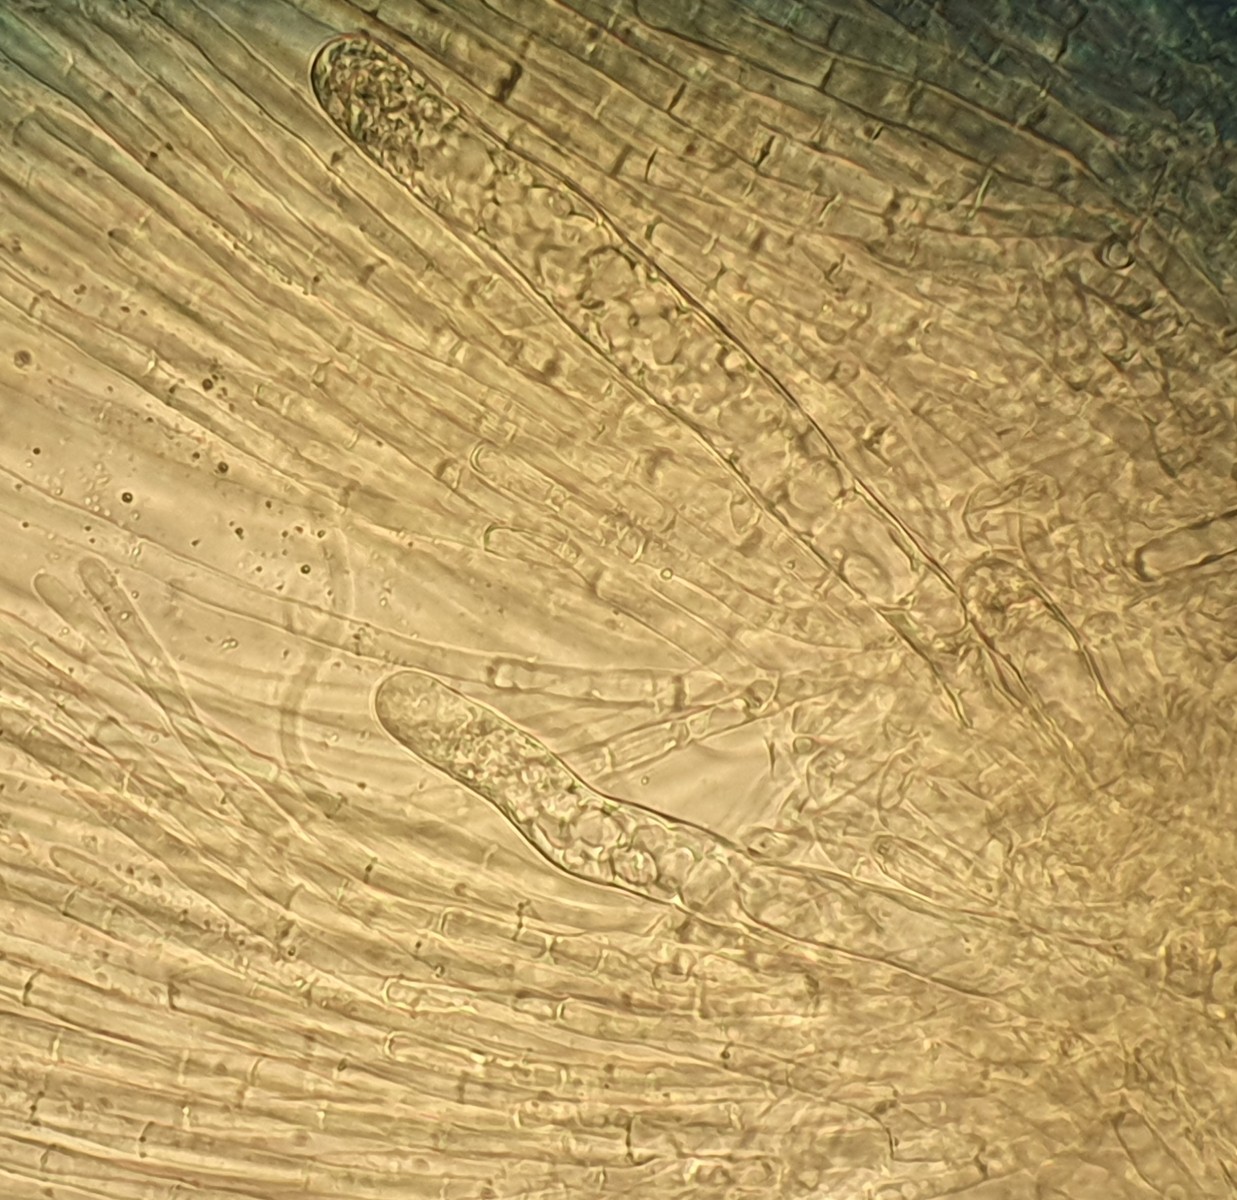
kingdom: Fungi
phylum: Ascomycota
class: Pezizomycetes
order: Pezizales
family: Morchellaceae
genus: Disciotis
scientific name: Disciotis venosa
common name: klor-bægermorkel
